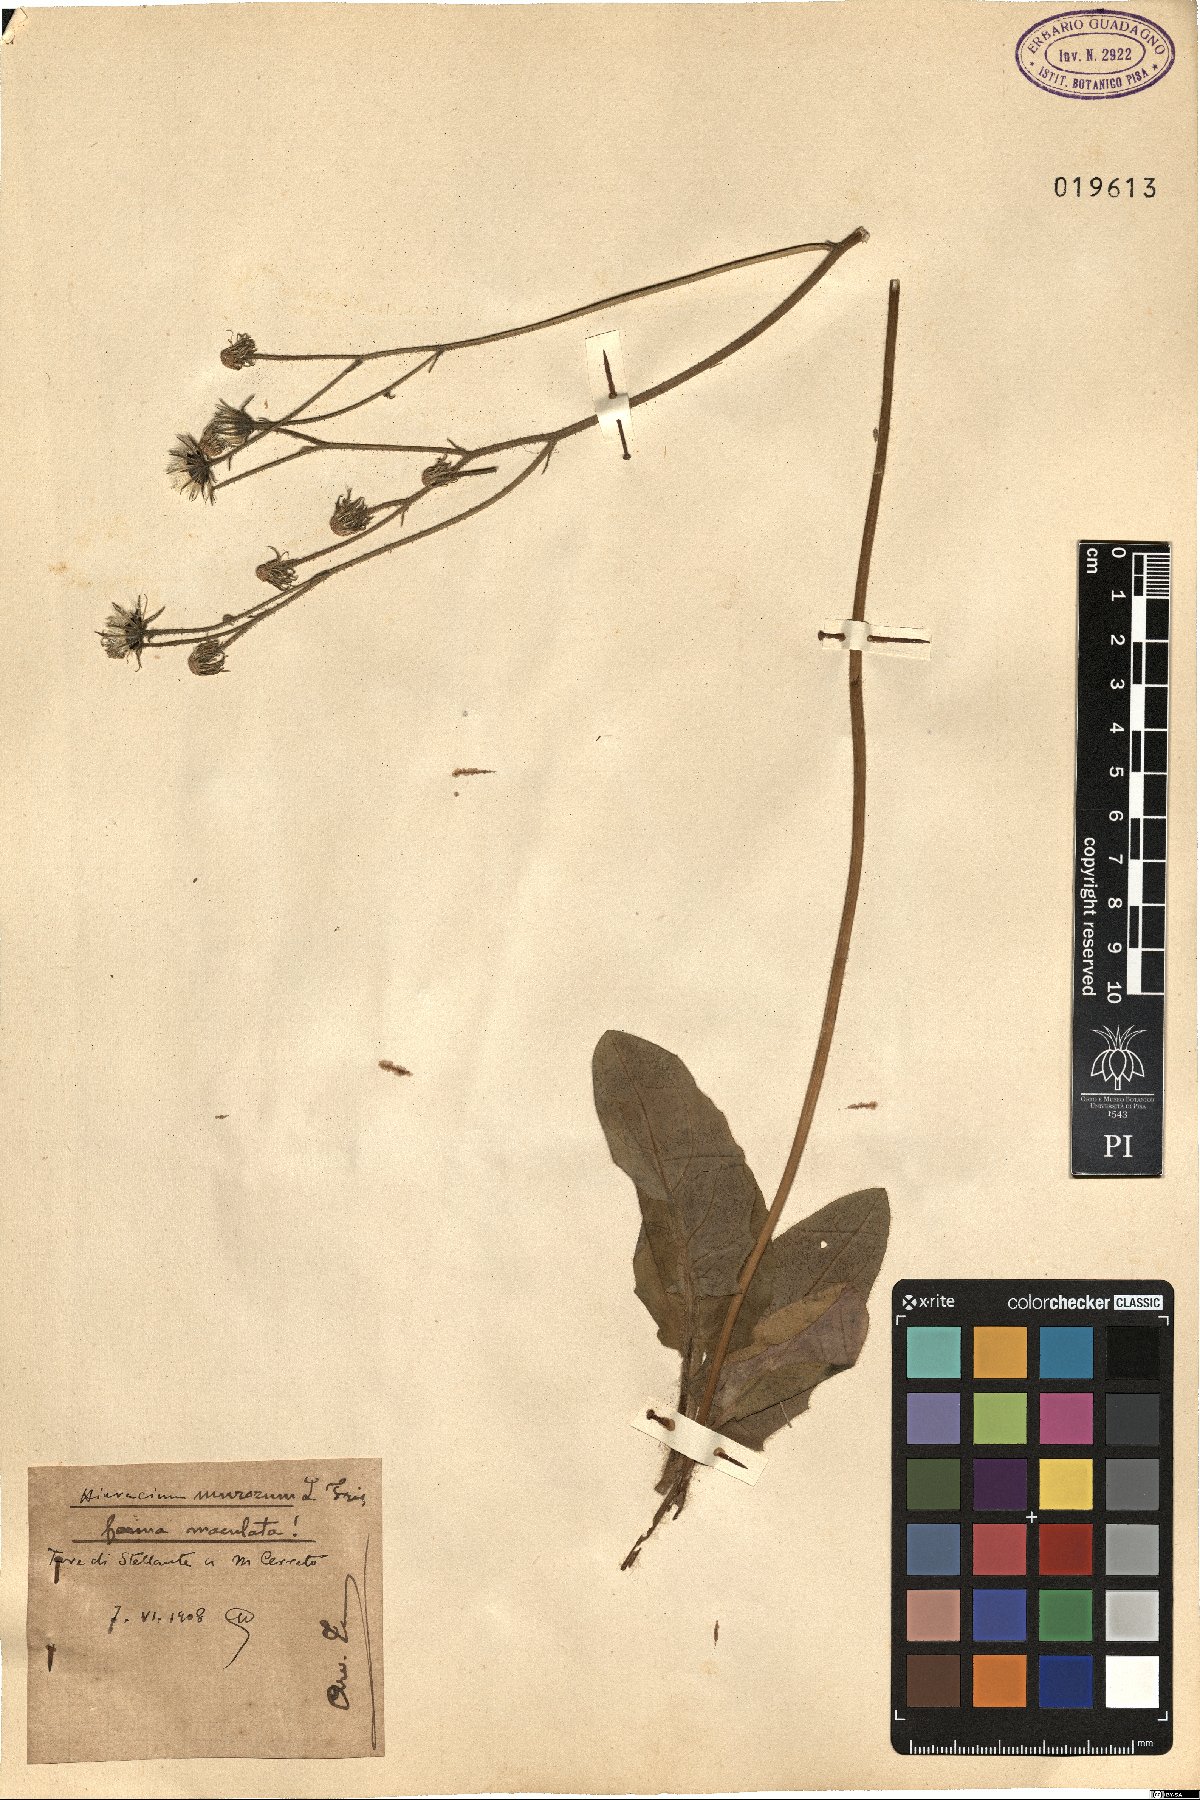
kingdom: Plantae
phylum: Tracheophyta
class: Magnoliopsida
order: Asterales
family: Asteraceae
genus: Hieracium
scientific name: Hieracium murorum
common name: Wall hawkweed
